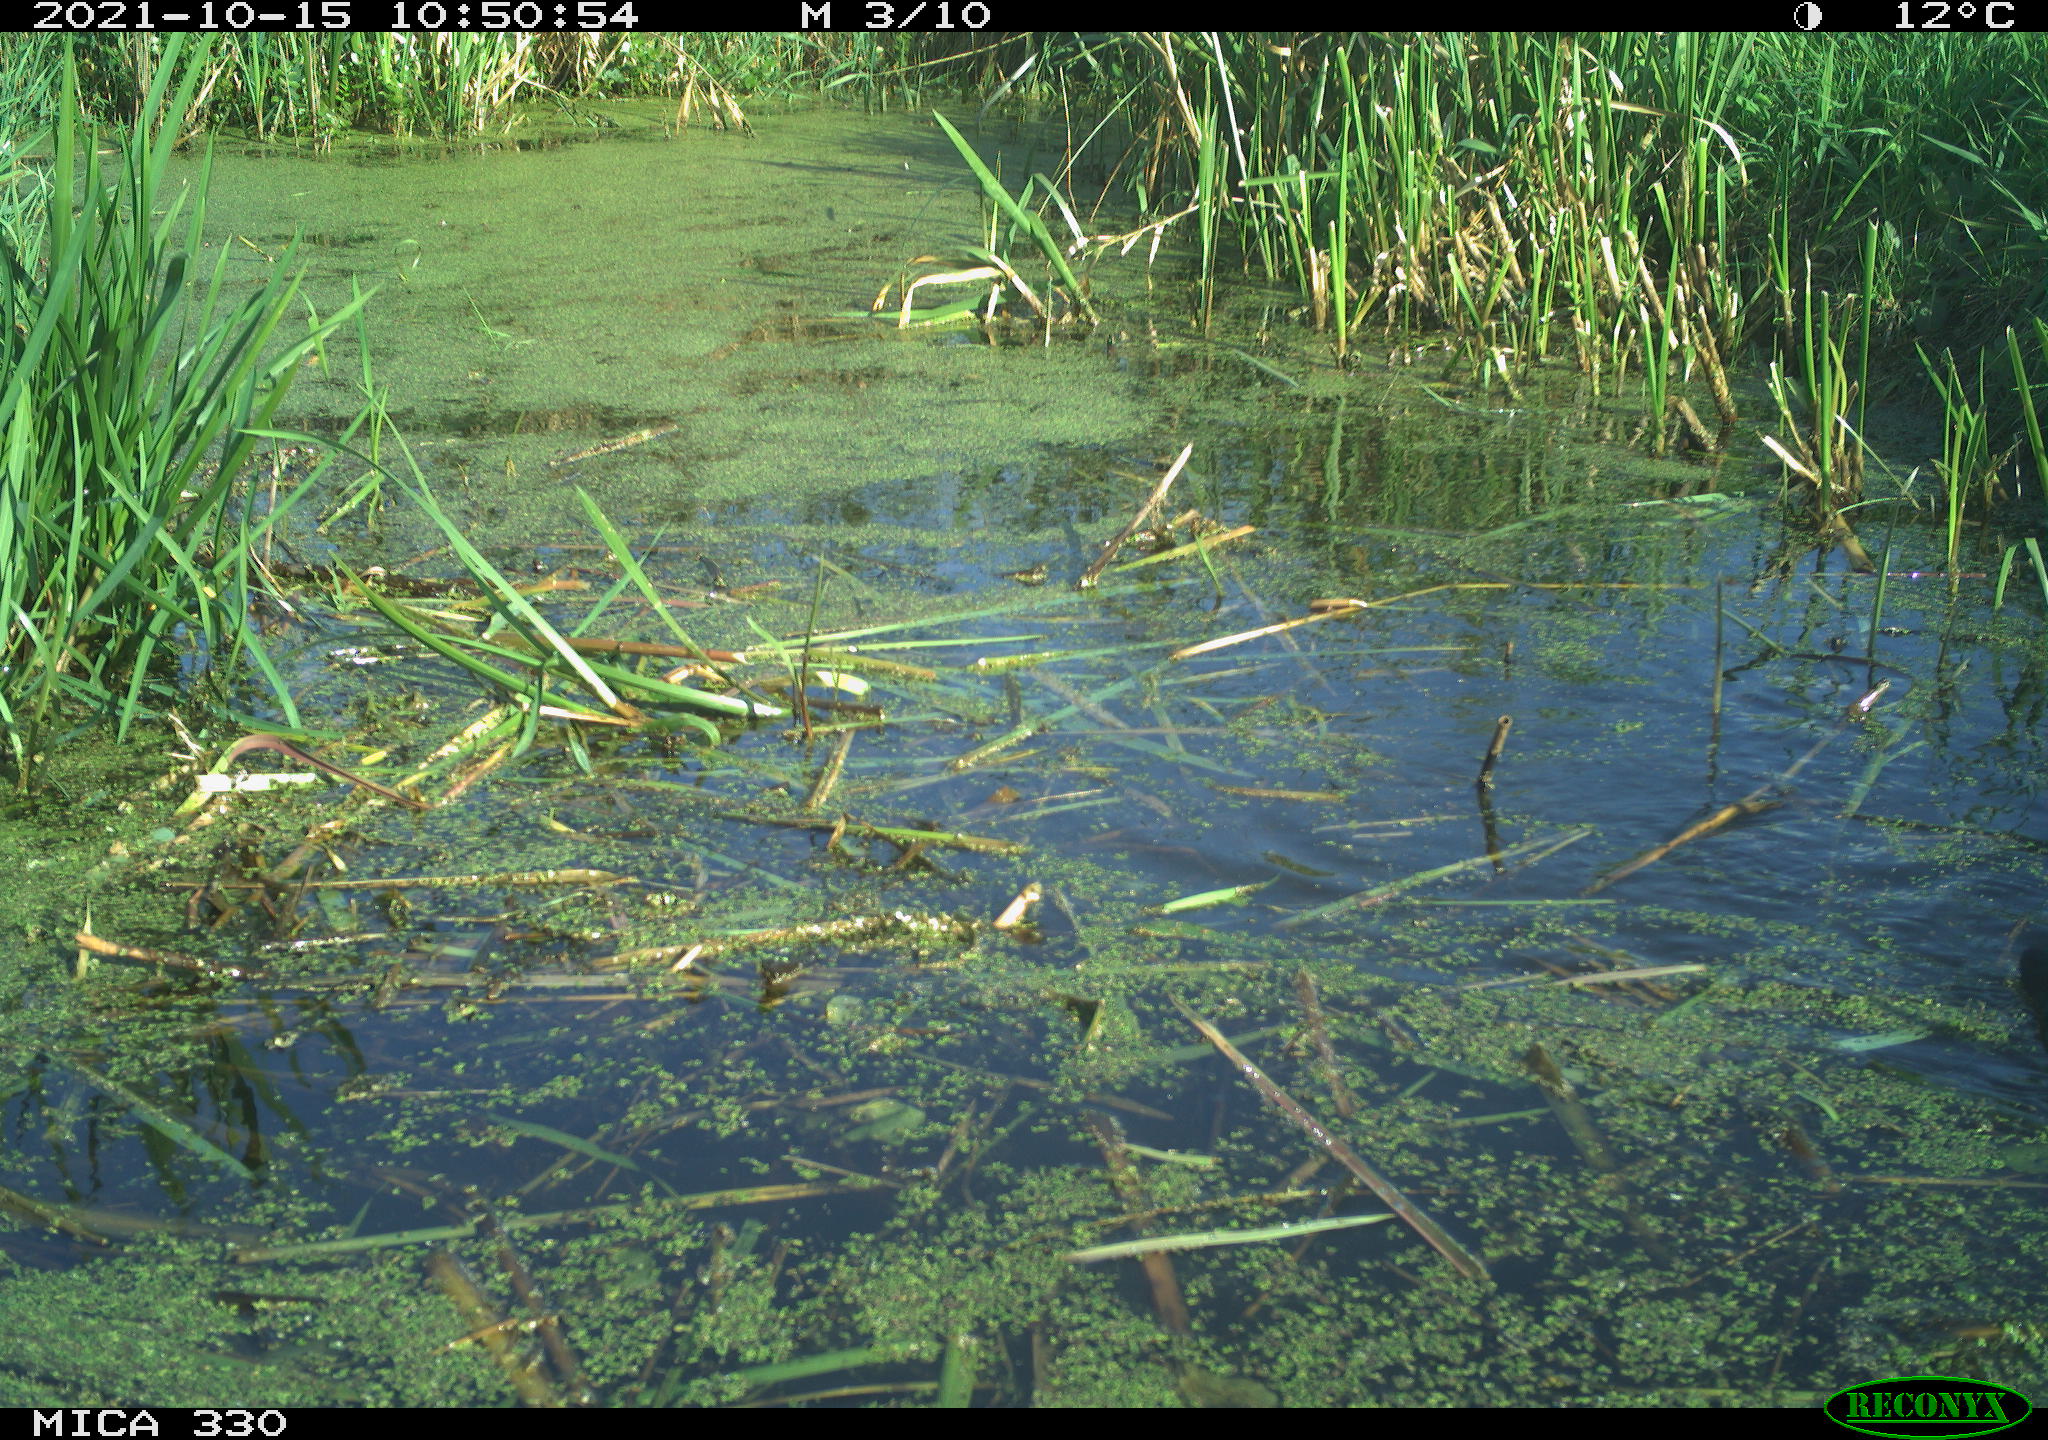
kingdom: Animalia
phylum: Chordata
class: Aves
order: Gruiformes
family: Rallidae
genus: Gallinula
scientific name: Gallinula chloropus
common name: Common moorhen
